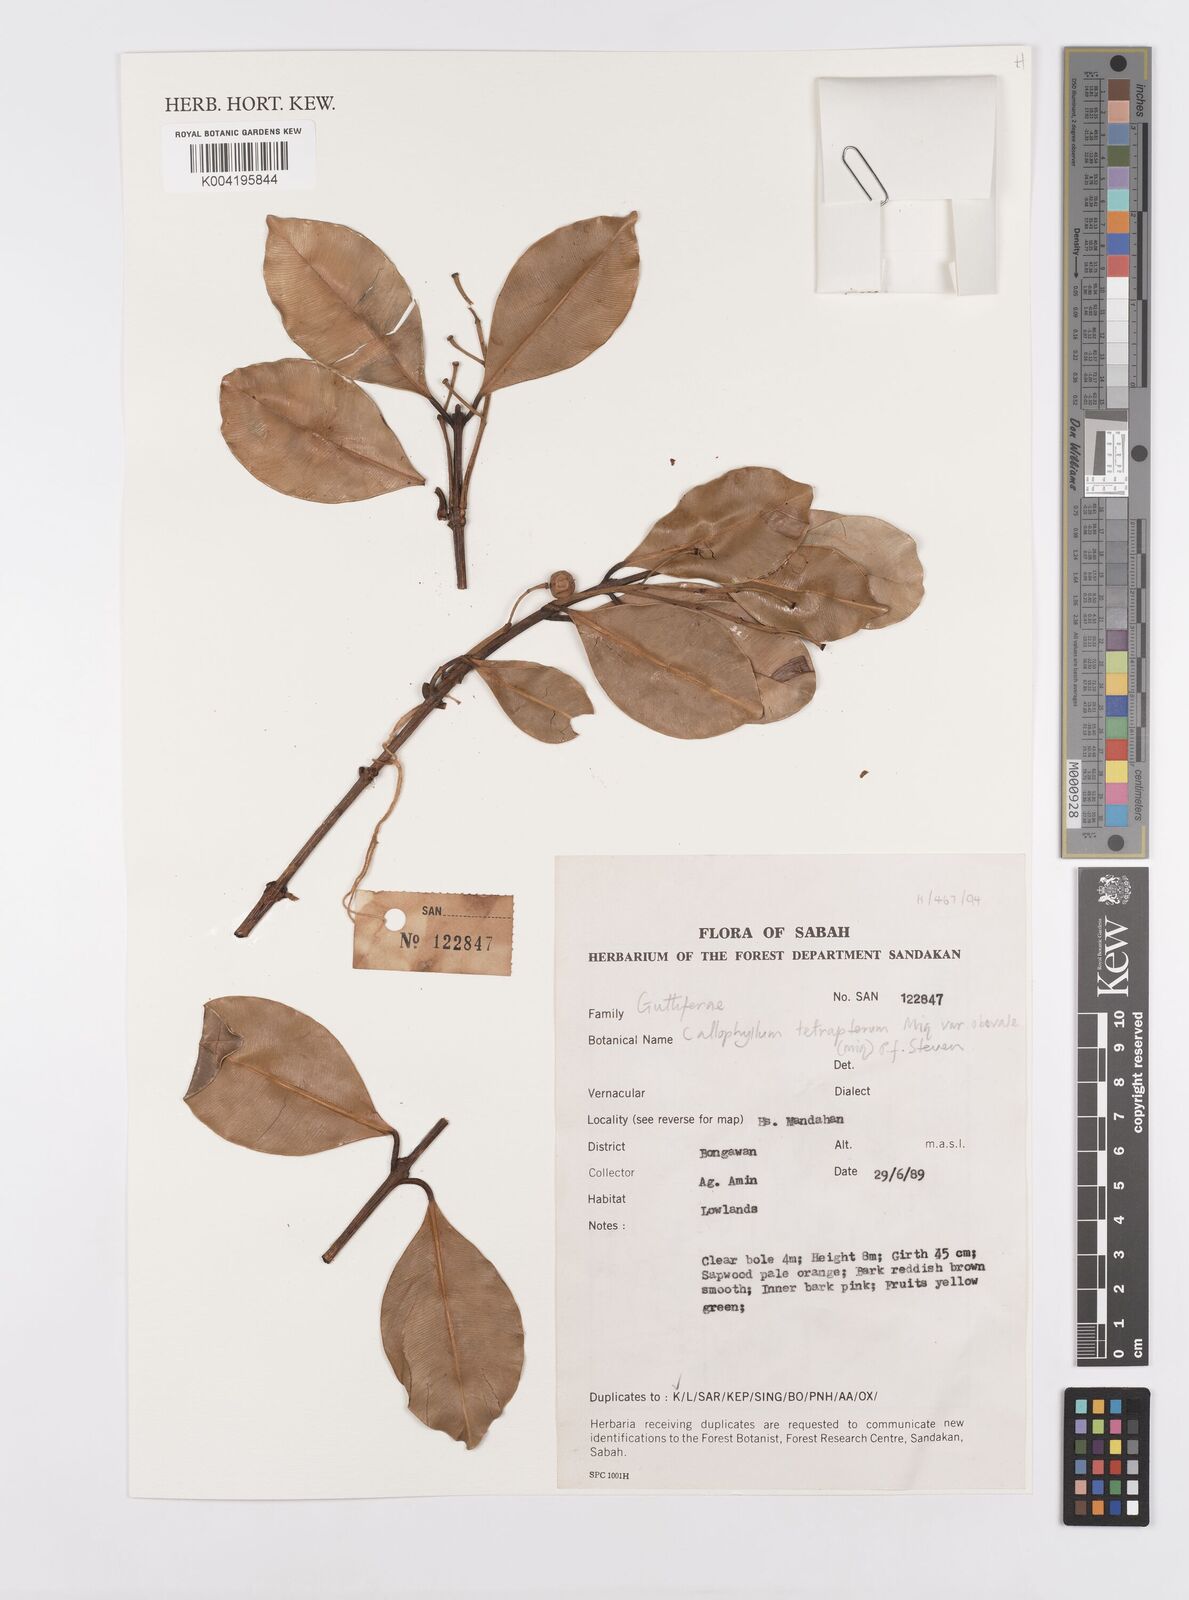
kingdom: Plantae
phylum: Tracheophyta
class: Magnoliopsida
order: Malpighiales
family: Calophyllaceae
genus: Calophyllum
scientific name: Calophyllum tetrapterum
